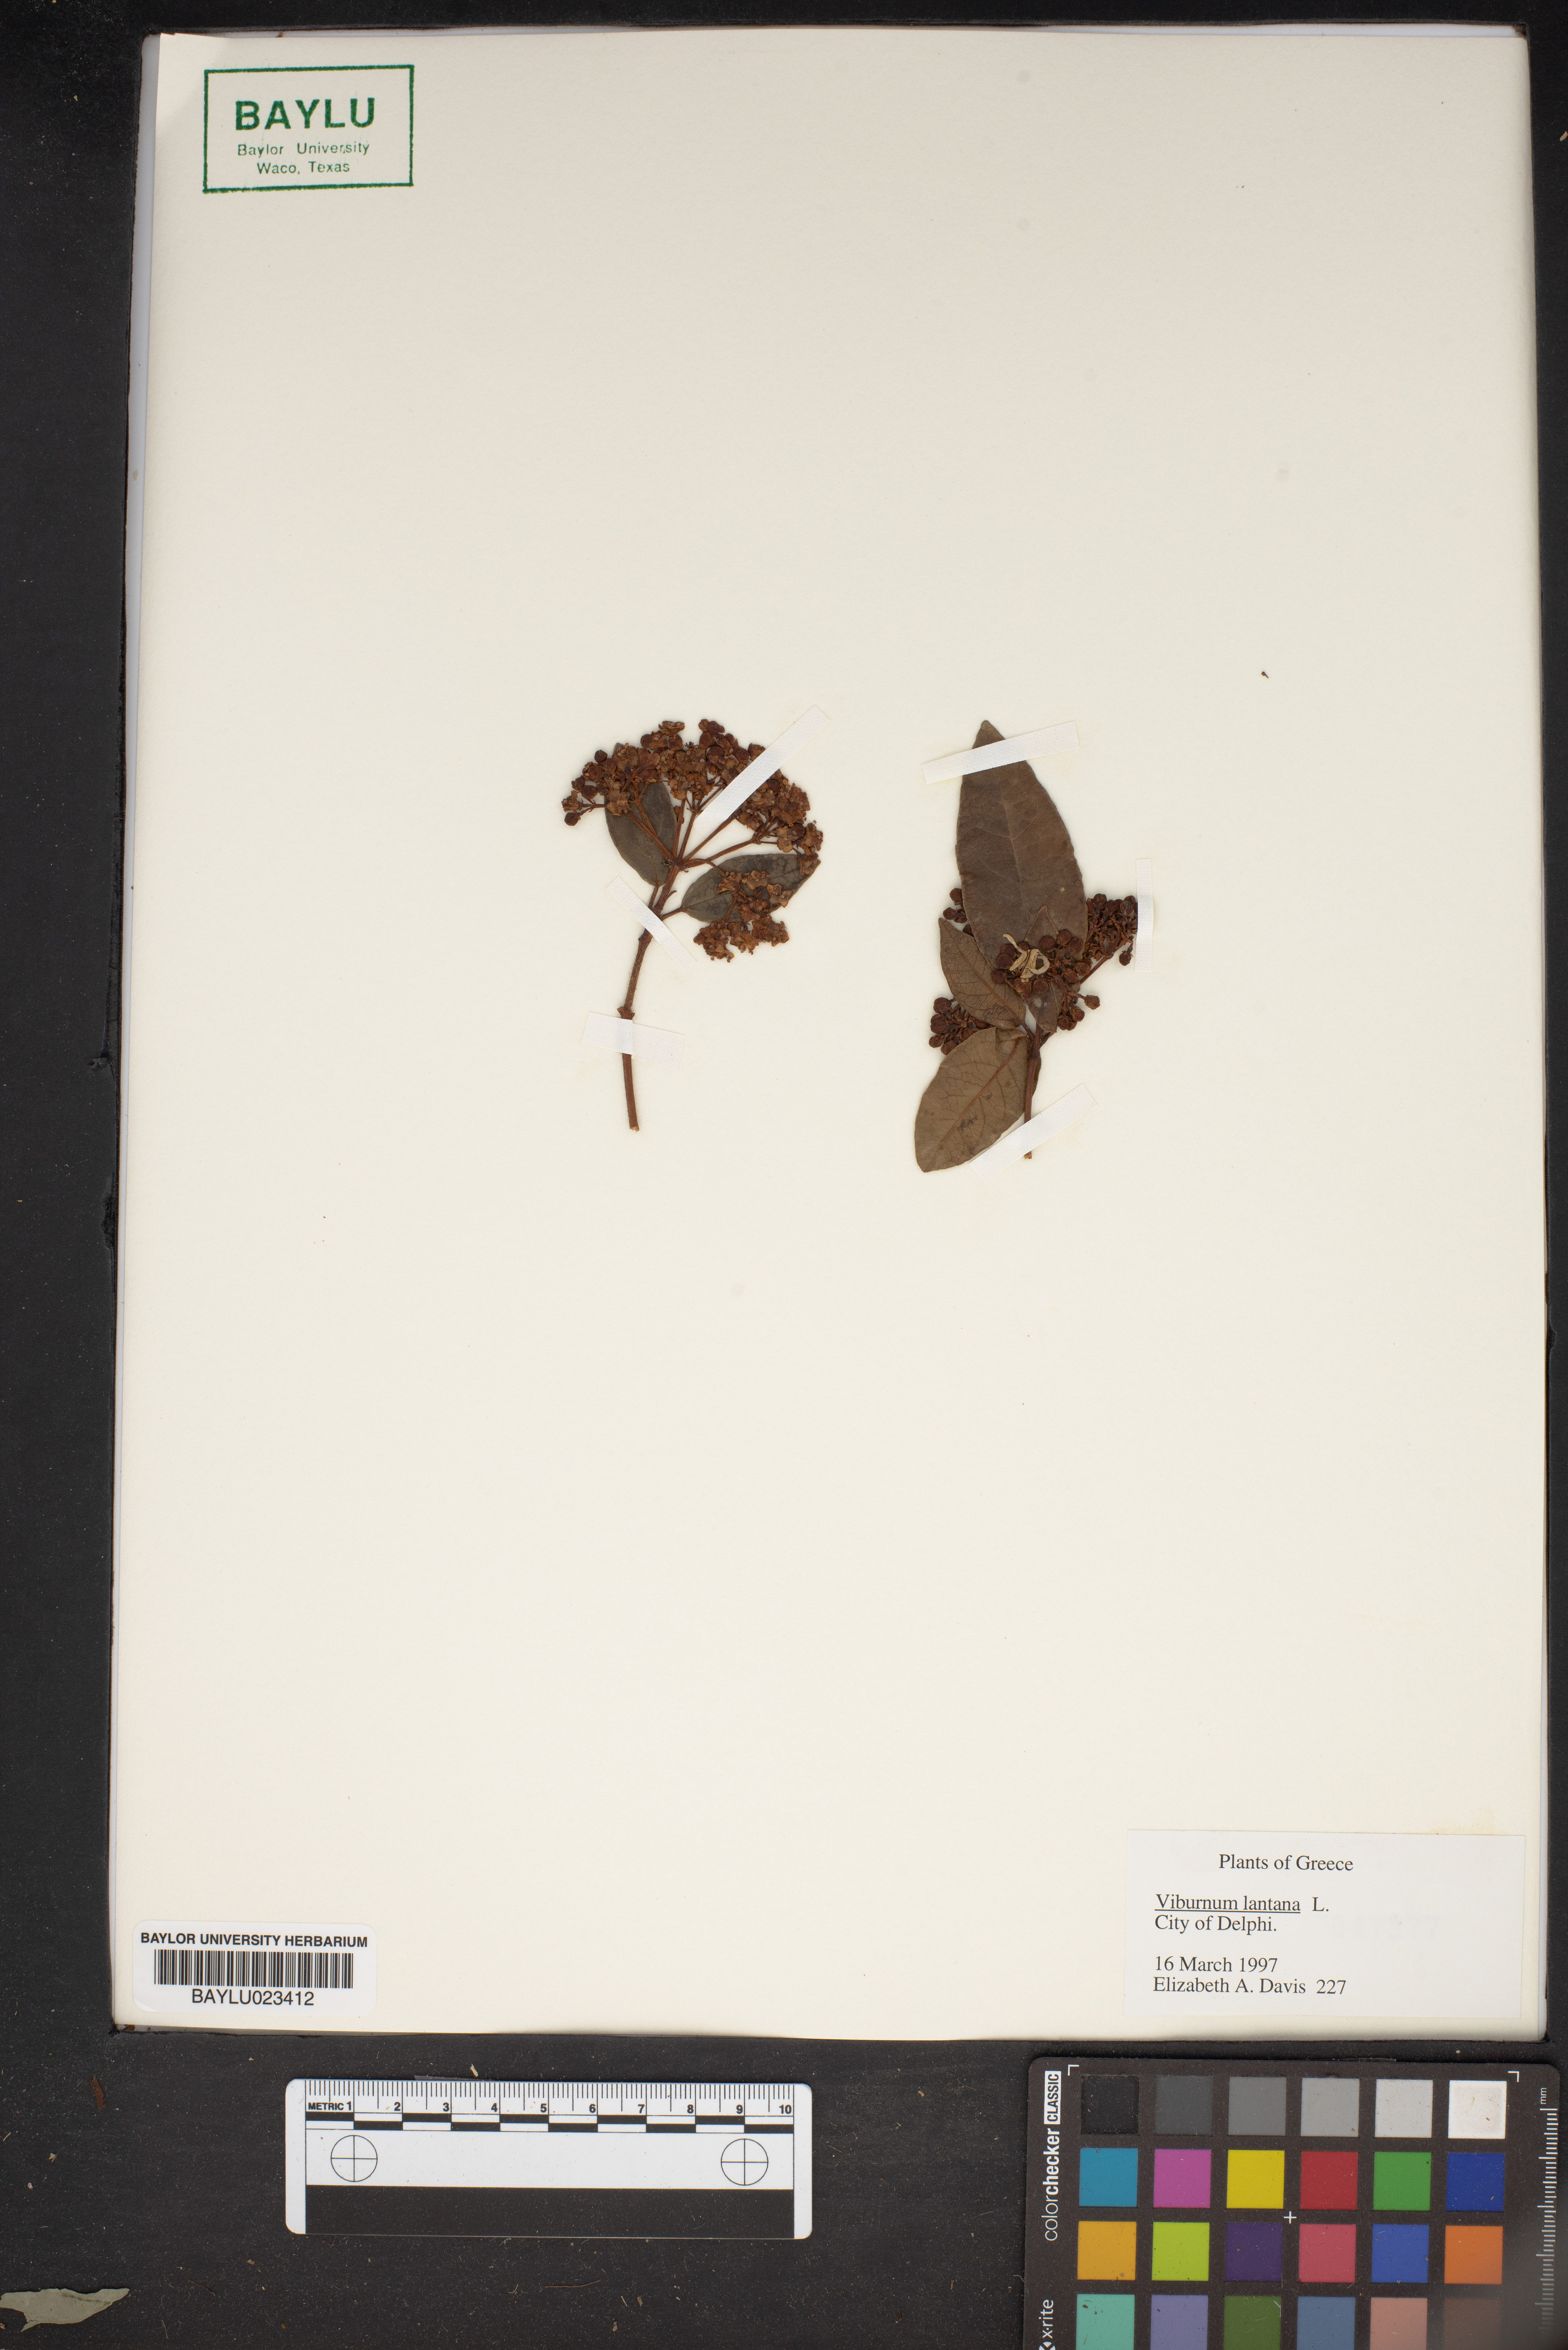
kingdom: Plantae
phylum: Tracheophyta
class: Magnoliopsida
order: Dipsacales
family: Viburnaceae
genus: Viburnum
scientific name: Viburnum lantana
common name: Wayfaring tree
